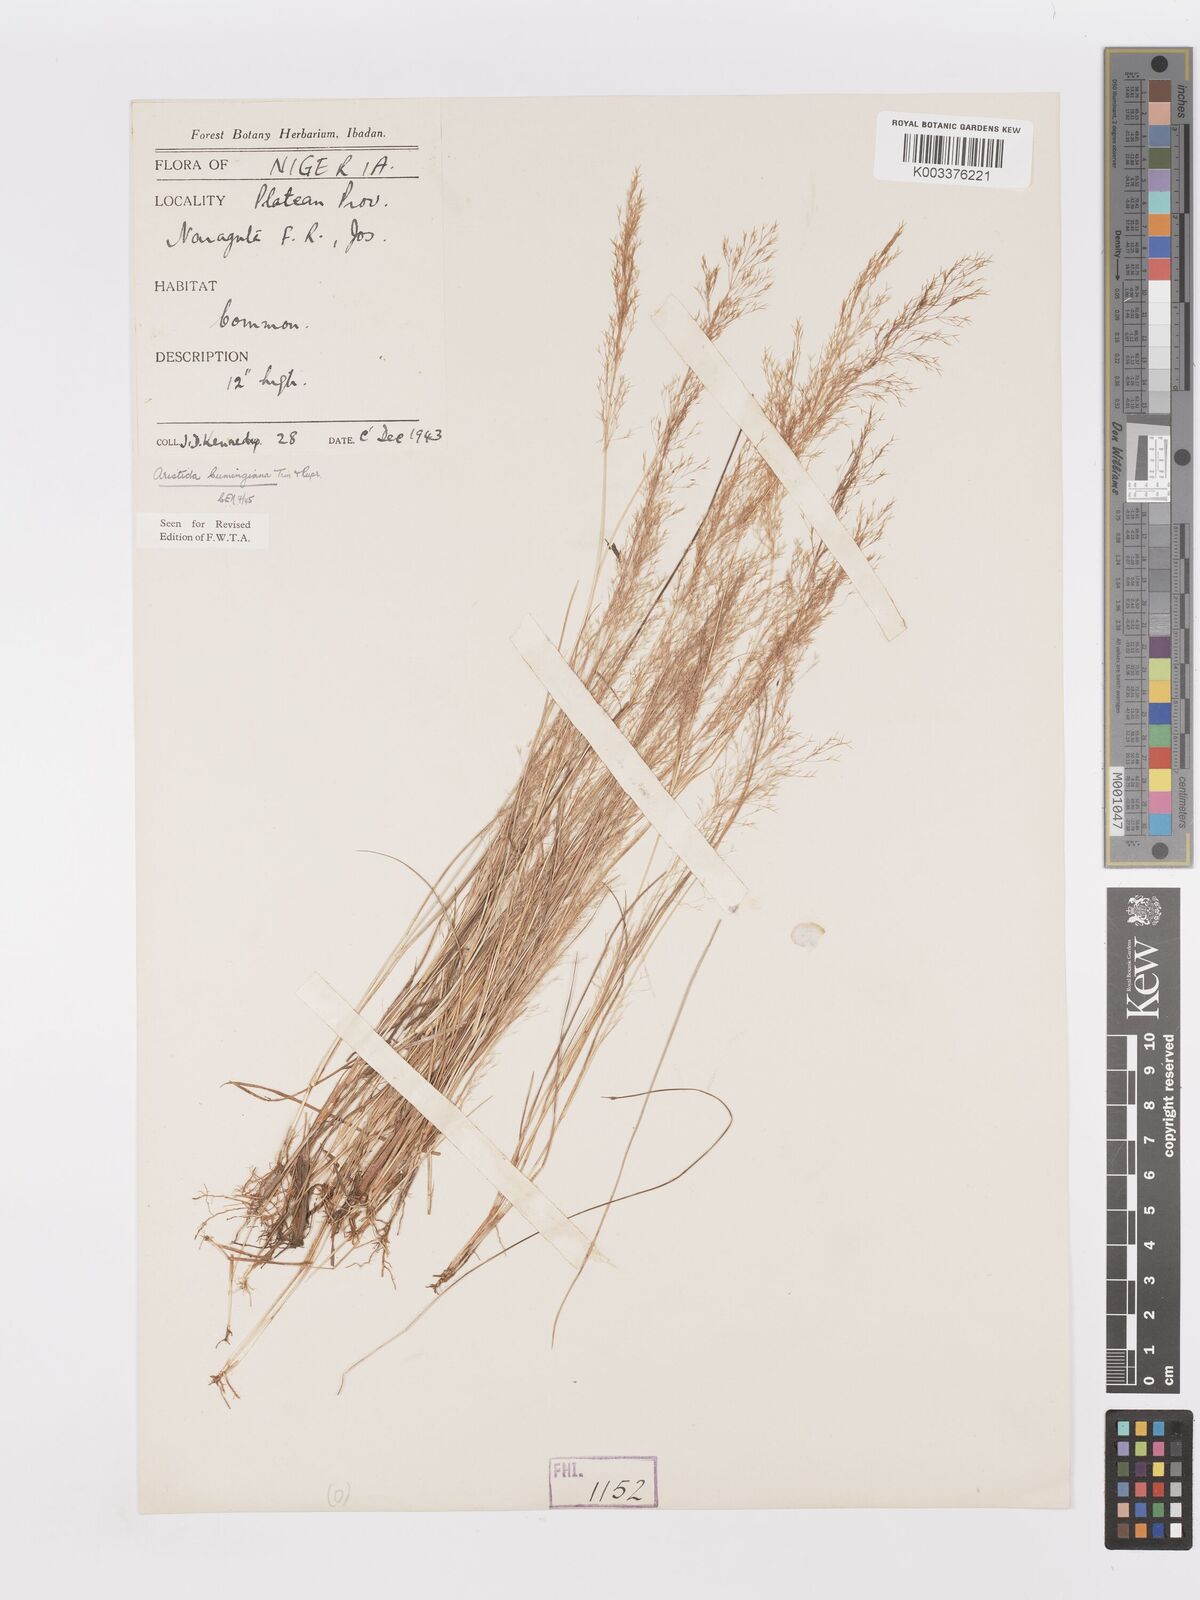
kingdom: Plantae
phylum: Tracheophyta
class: Liliopsida
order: Poales
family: Poaceae
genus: Aristida
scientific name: Aristida cumingiana
